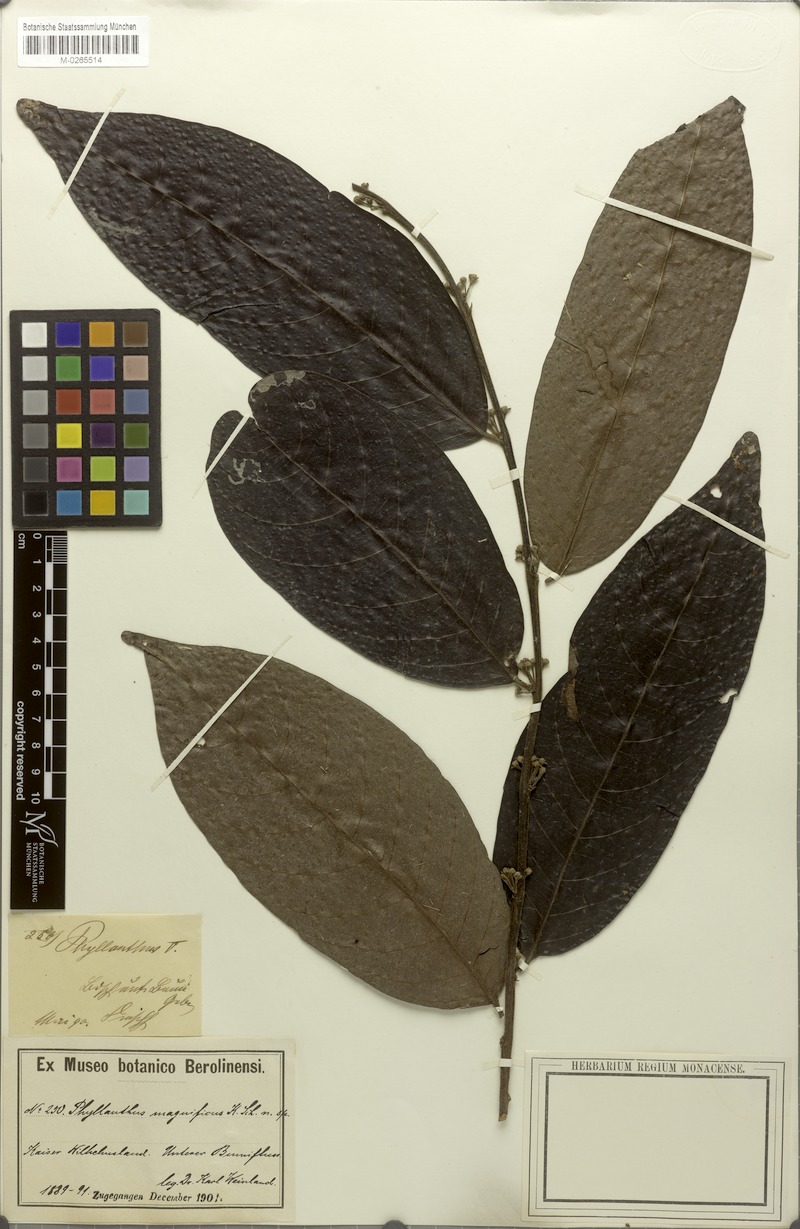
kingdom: Plantae
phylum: Tracheophyta
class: Magnoliopsida
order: Malpighiales
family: Phyllanthaceae
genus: Glochidion
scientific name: Glochidion submolle
